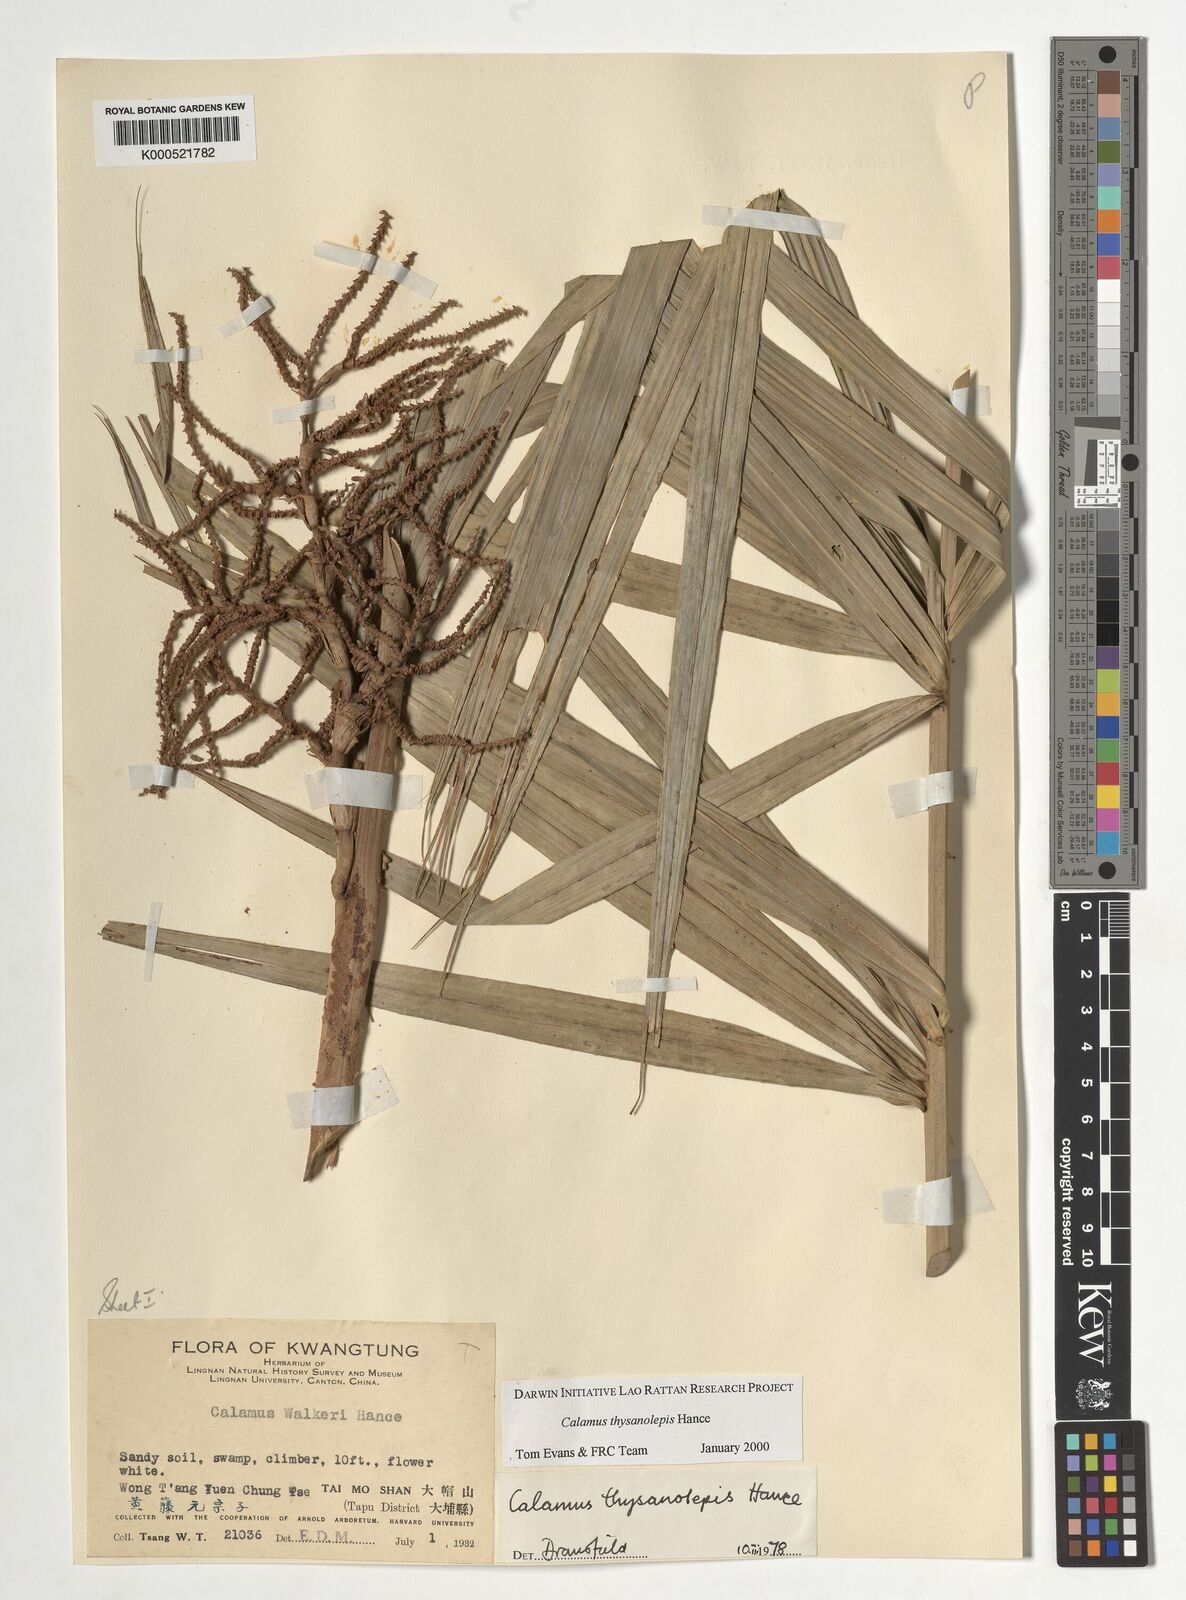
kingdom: Plantae
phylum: Tracheophyta
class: Liliopsida
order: Arecales
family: Arecaceae
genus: Calamus
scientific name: Calamus thysanolepis
